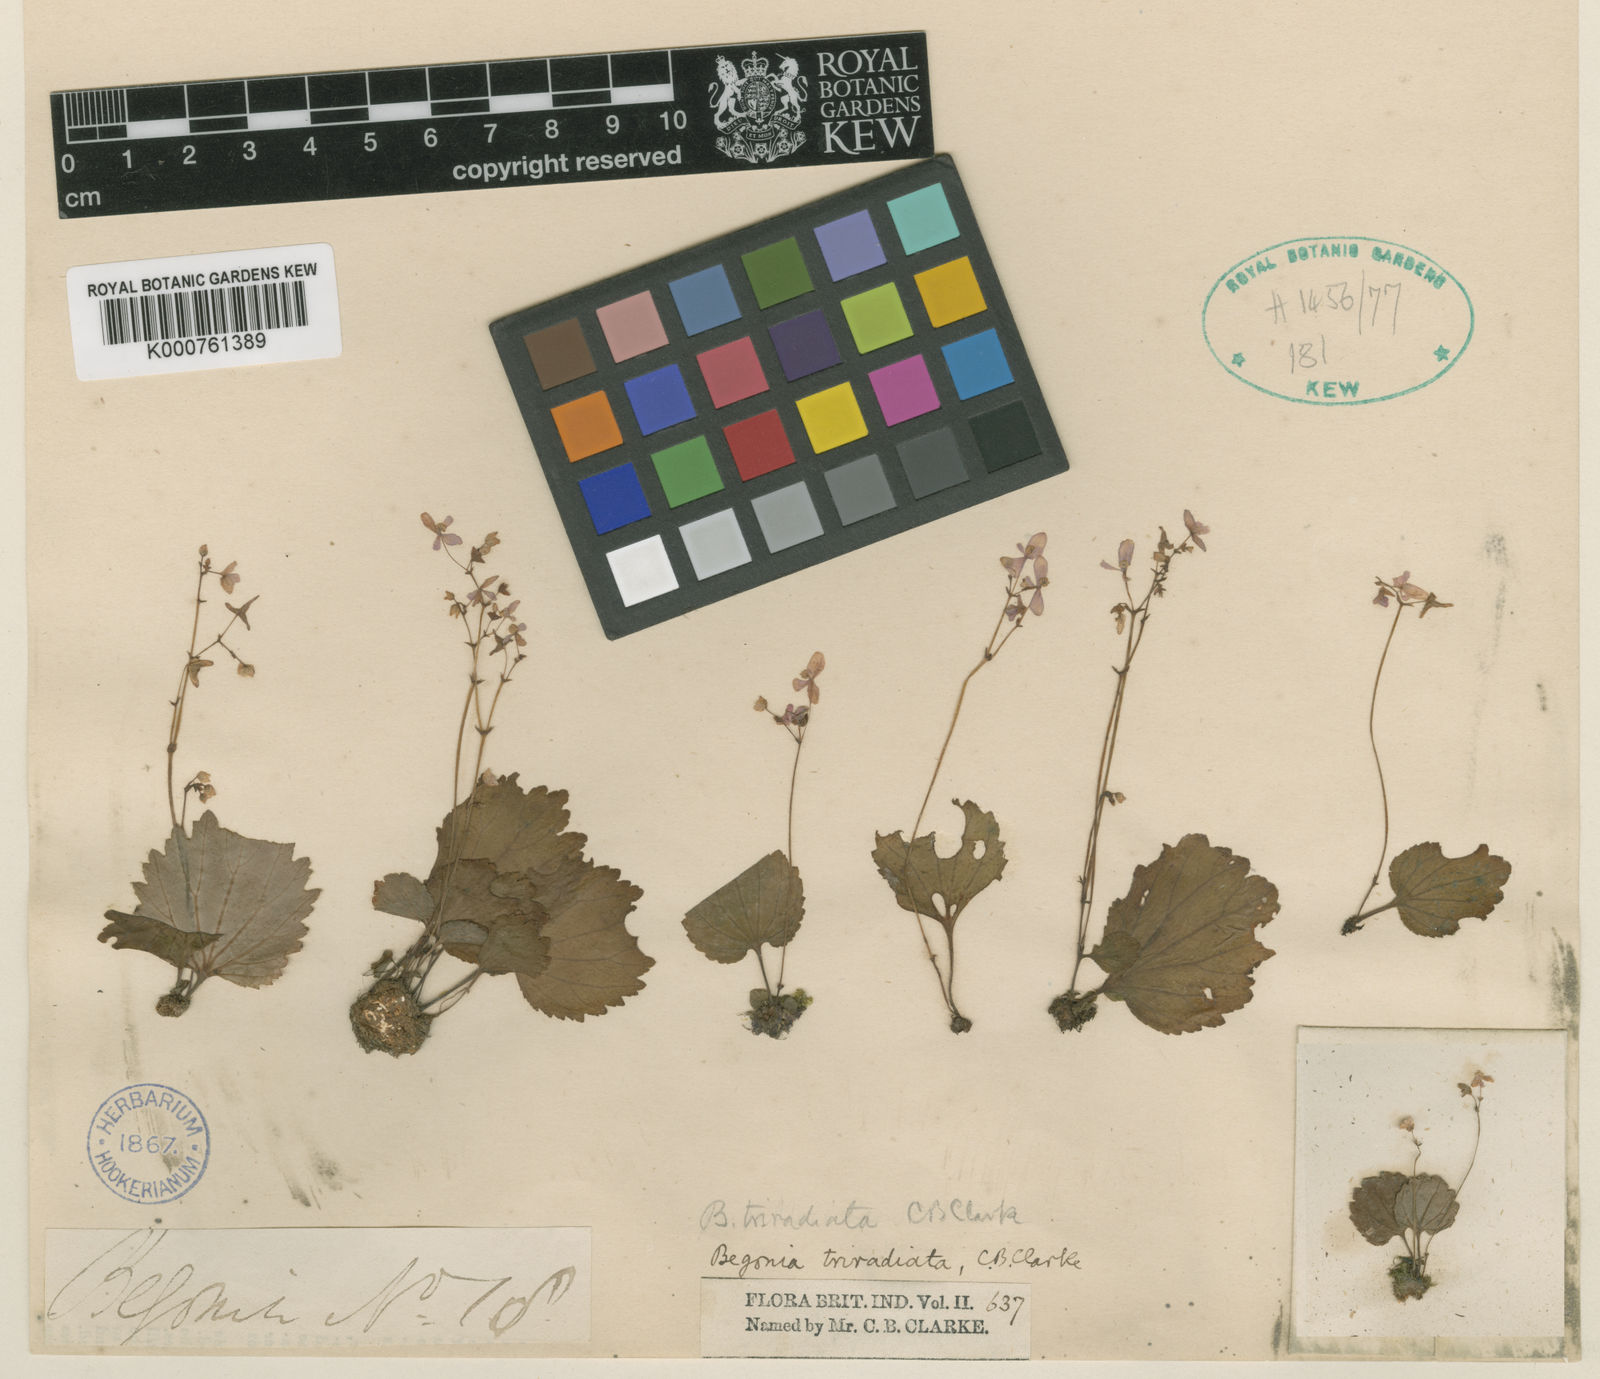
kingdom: Plantae
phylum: Tracheophyta
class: Magnoliopsida
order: Cucurbitales
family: Begoniaceae
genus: Begonia
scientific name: Begonia triradiata
